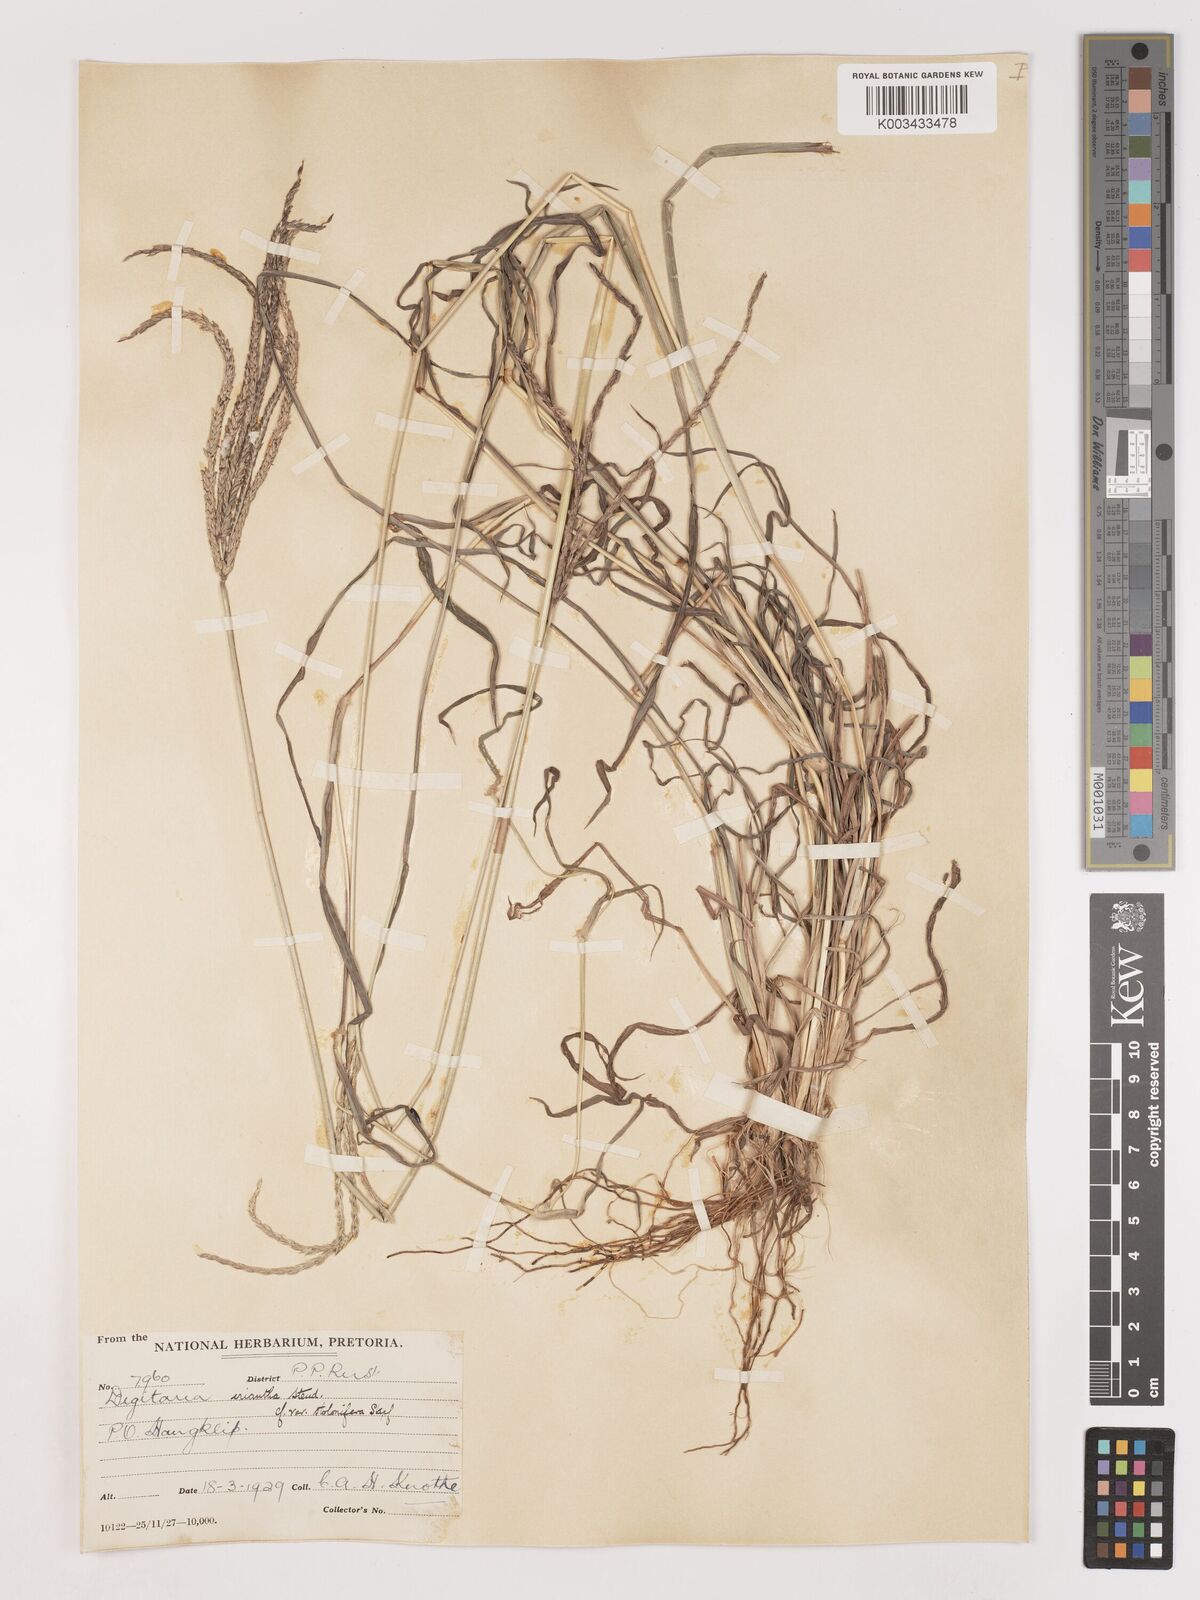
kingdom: Plantae
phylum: Tracheophyta
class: Liliopsida
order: Poales
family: Poaceae
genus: Digitaria
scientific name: Digitaria eriantha
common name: Digitgrass
